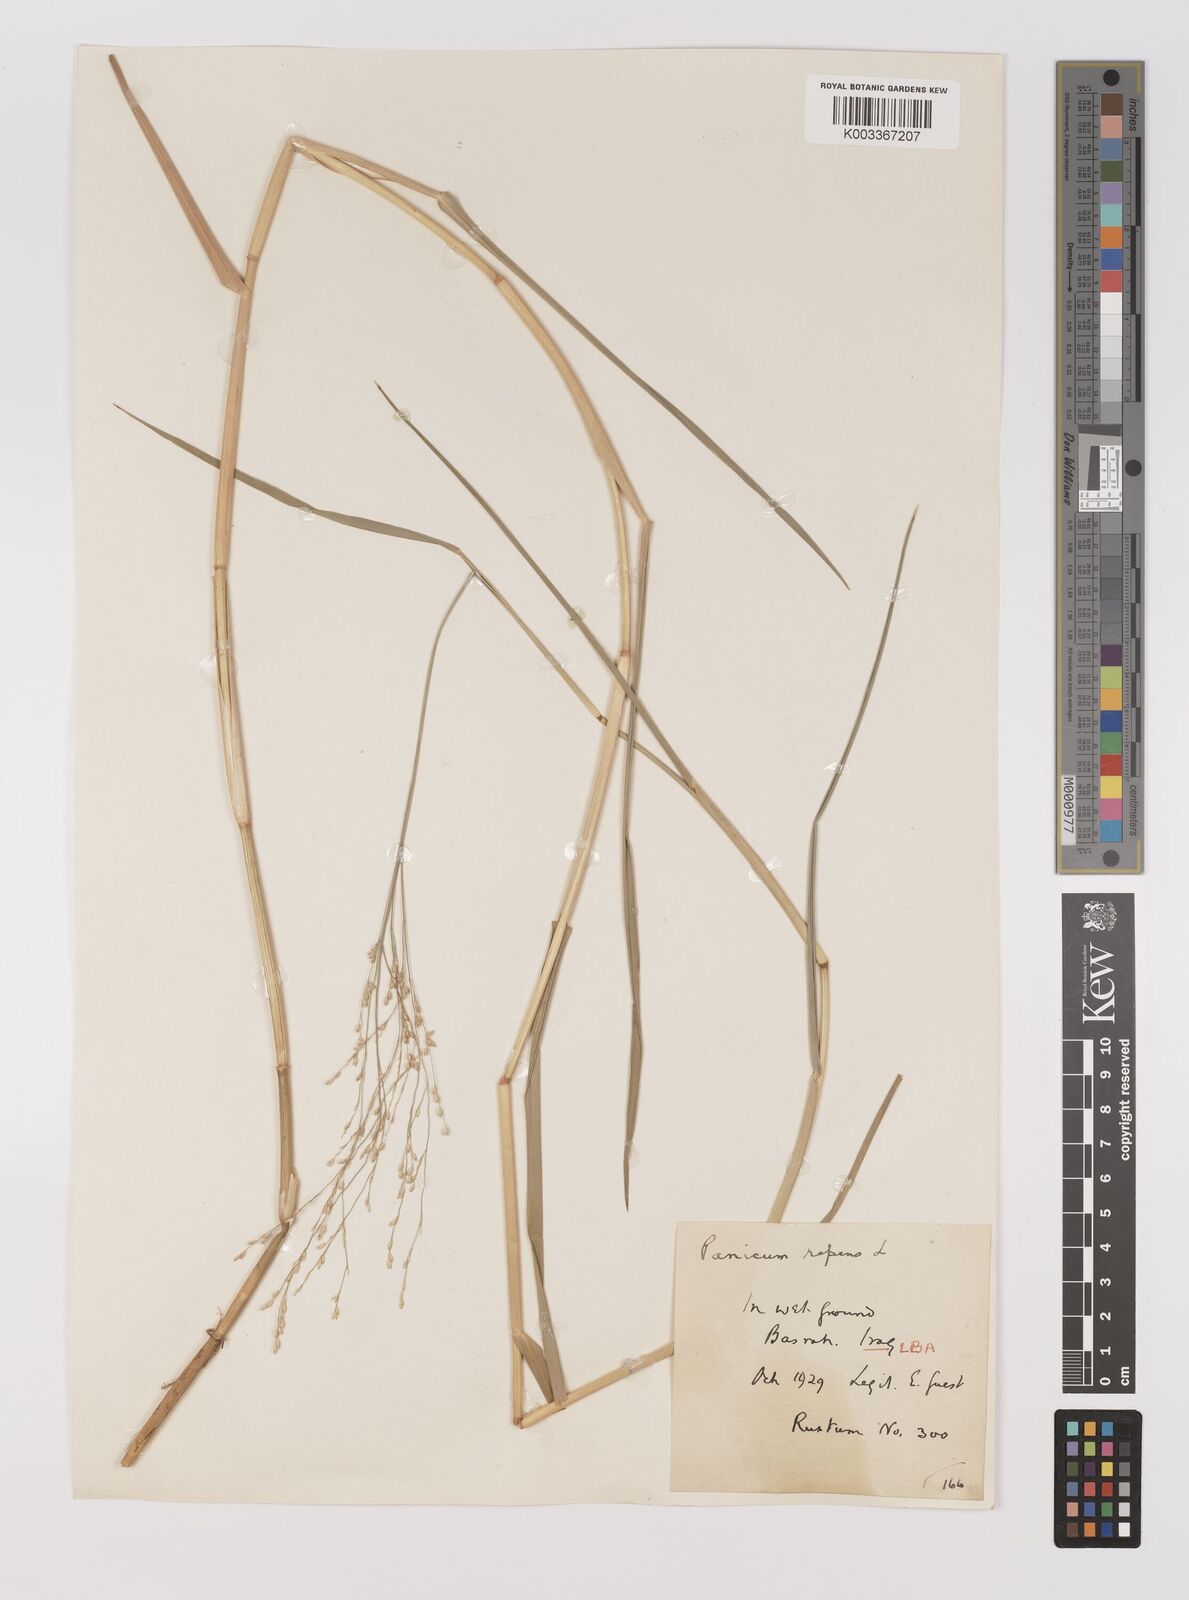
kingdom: Plantae
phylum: Tracheophyta
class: Liliopsida
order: Poales
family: Poaceae
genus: Panicum
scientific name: Panicum repens
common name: Torpedo grass
